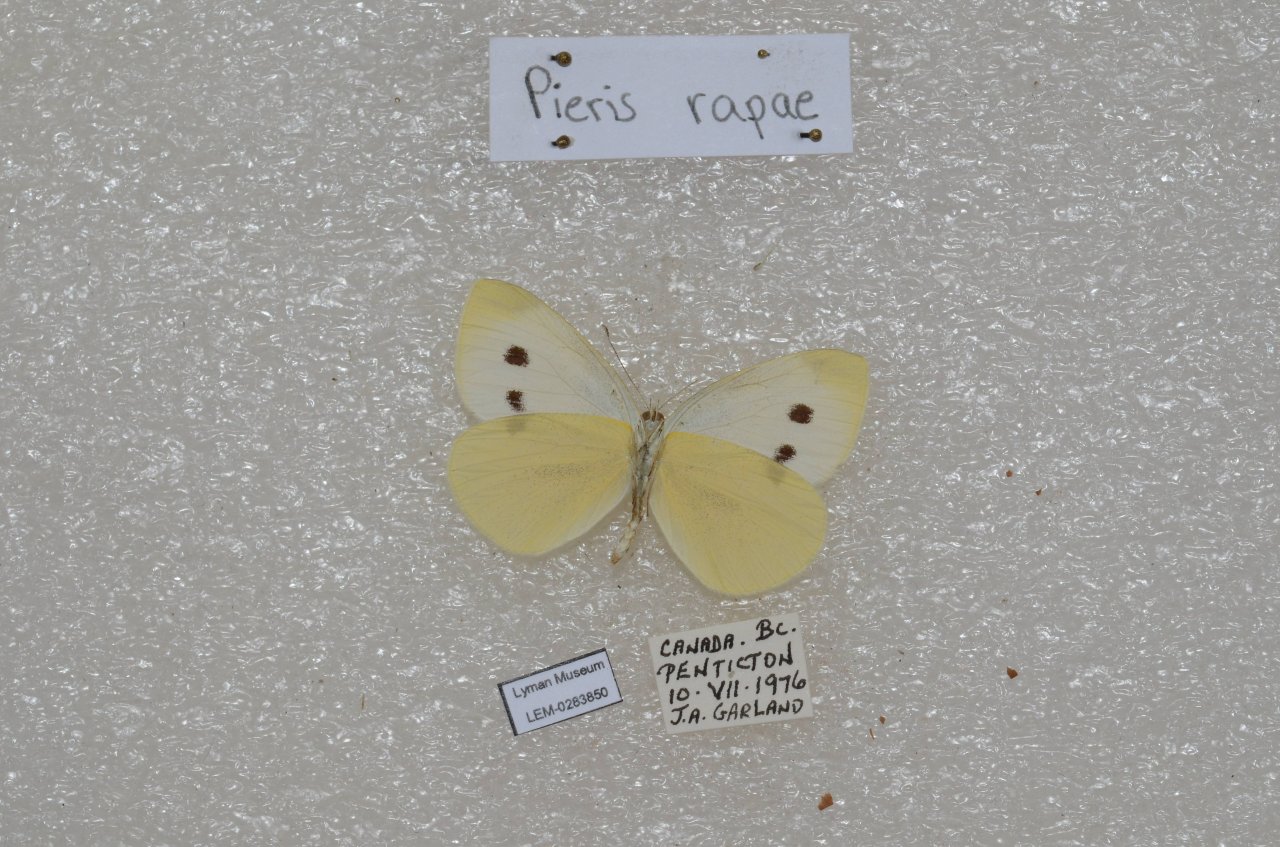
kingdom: Animalia
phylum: Arthropoda
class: Insecta
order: Lepidoptera
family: Pieridae
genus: Pieris
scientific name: Pieris rapae
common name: Cabbage White
